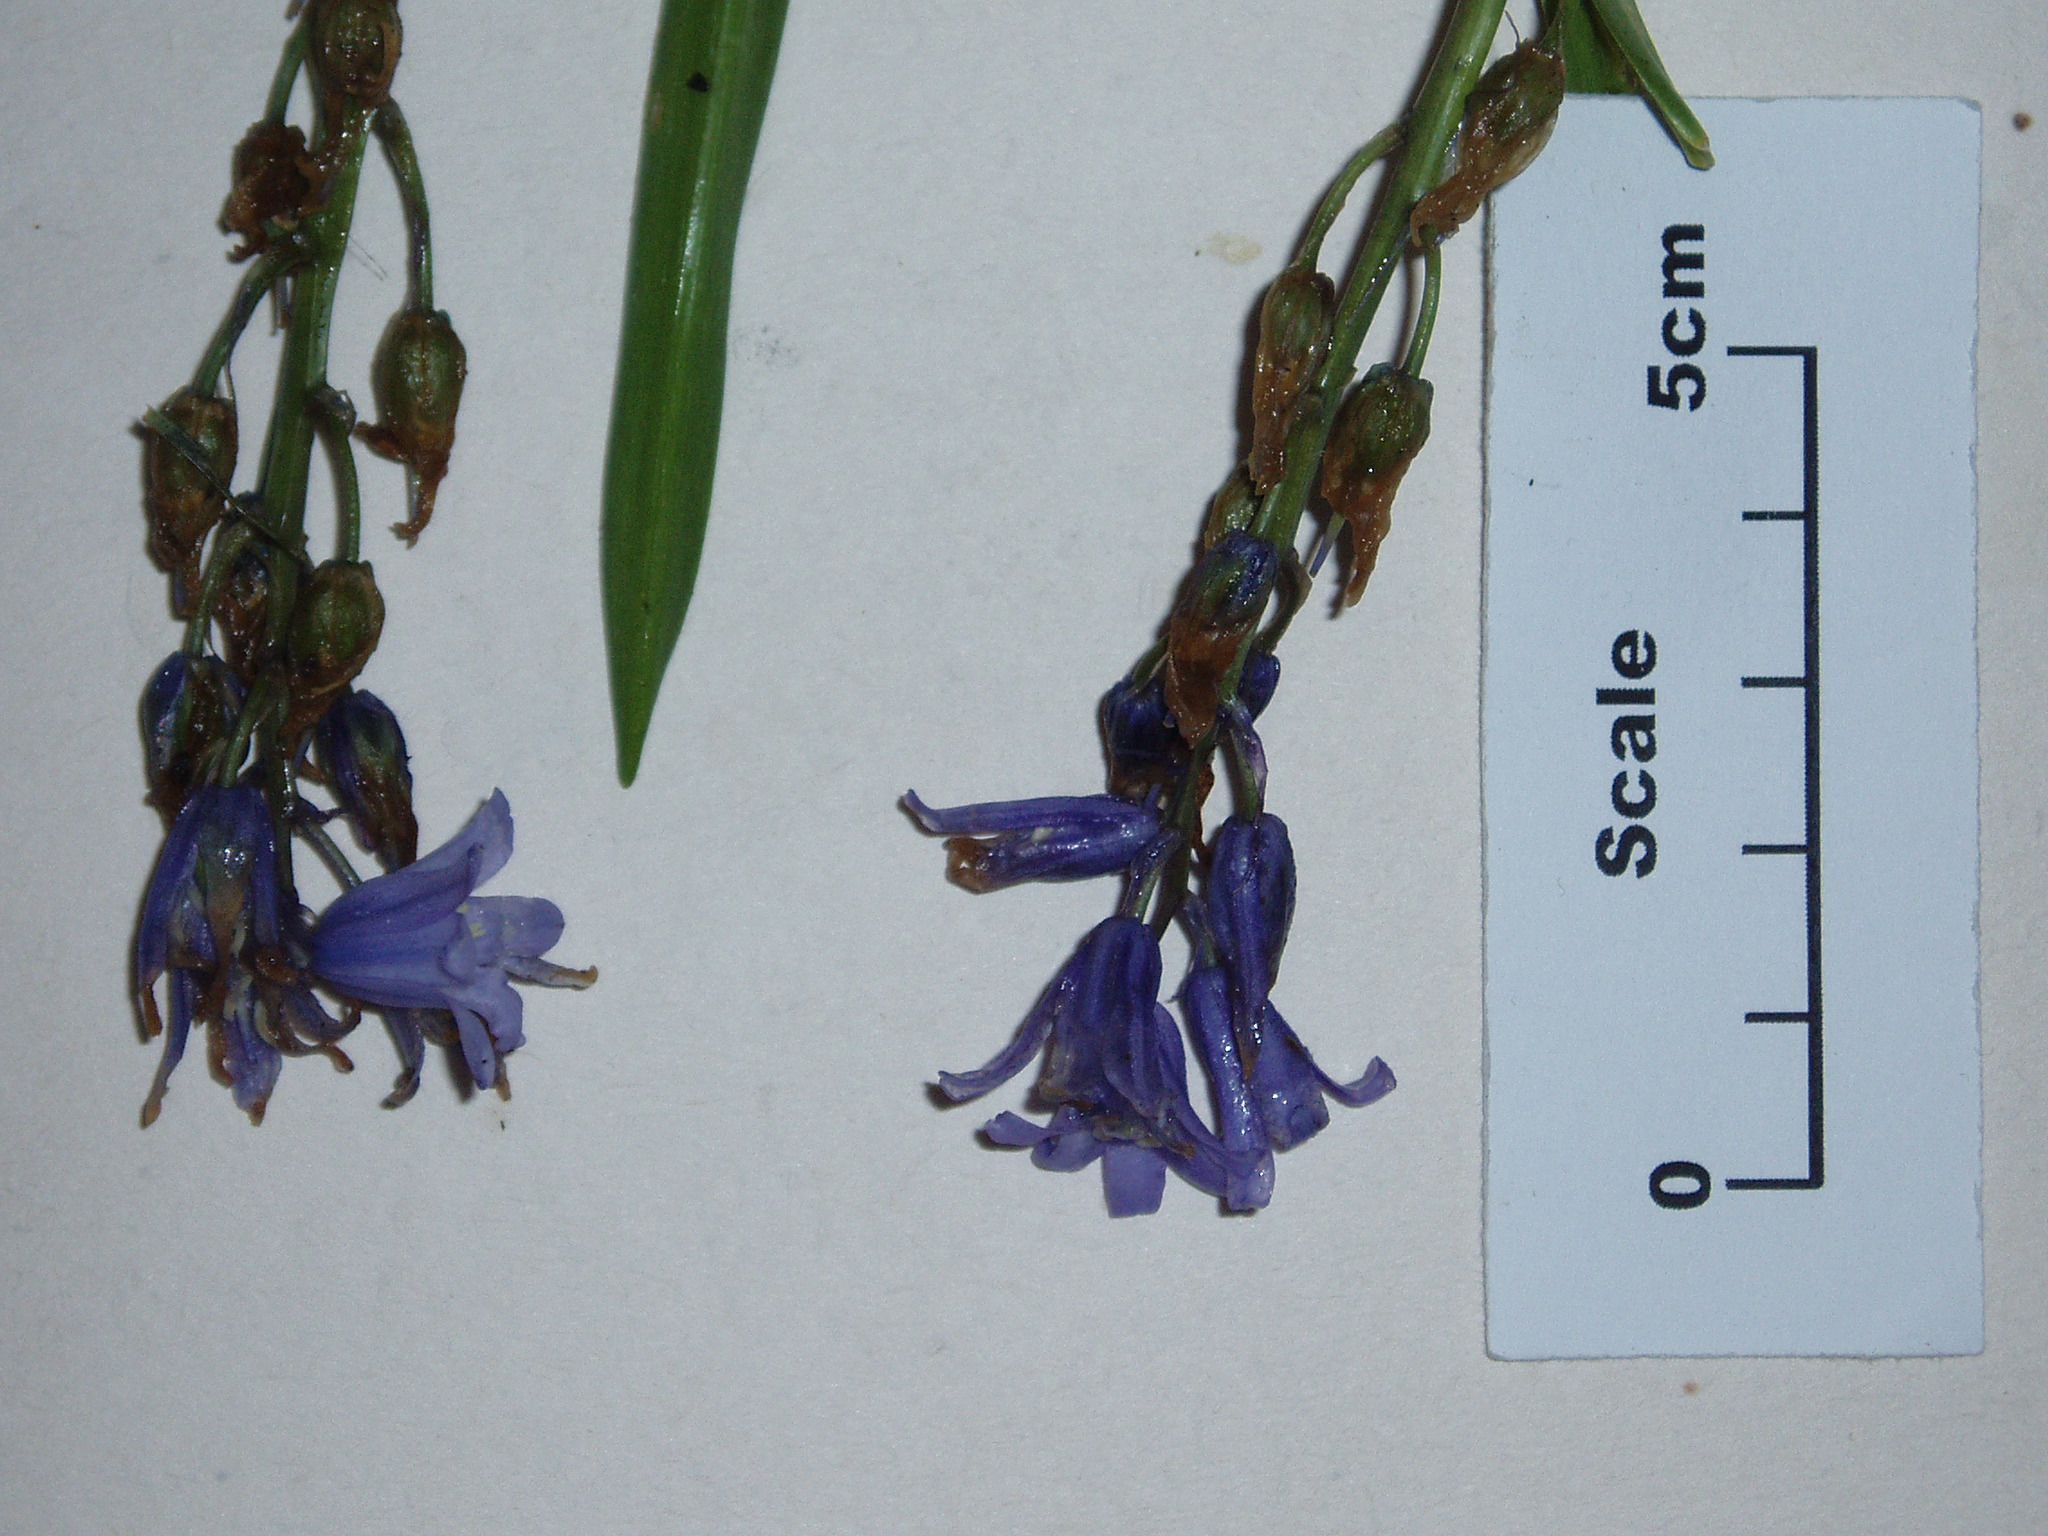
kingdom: Plantae
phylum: Tracheophyta
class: Liliopsida
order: Asparagales
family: Asparagaceae
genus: Hyacinthoides
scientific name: Hyacinthoides non-scripta
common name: Bluebell
